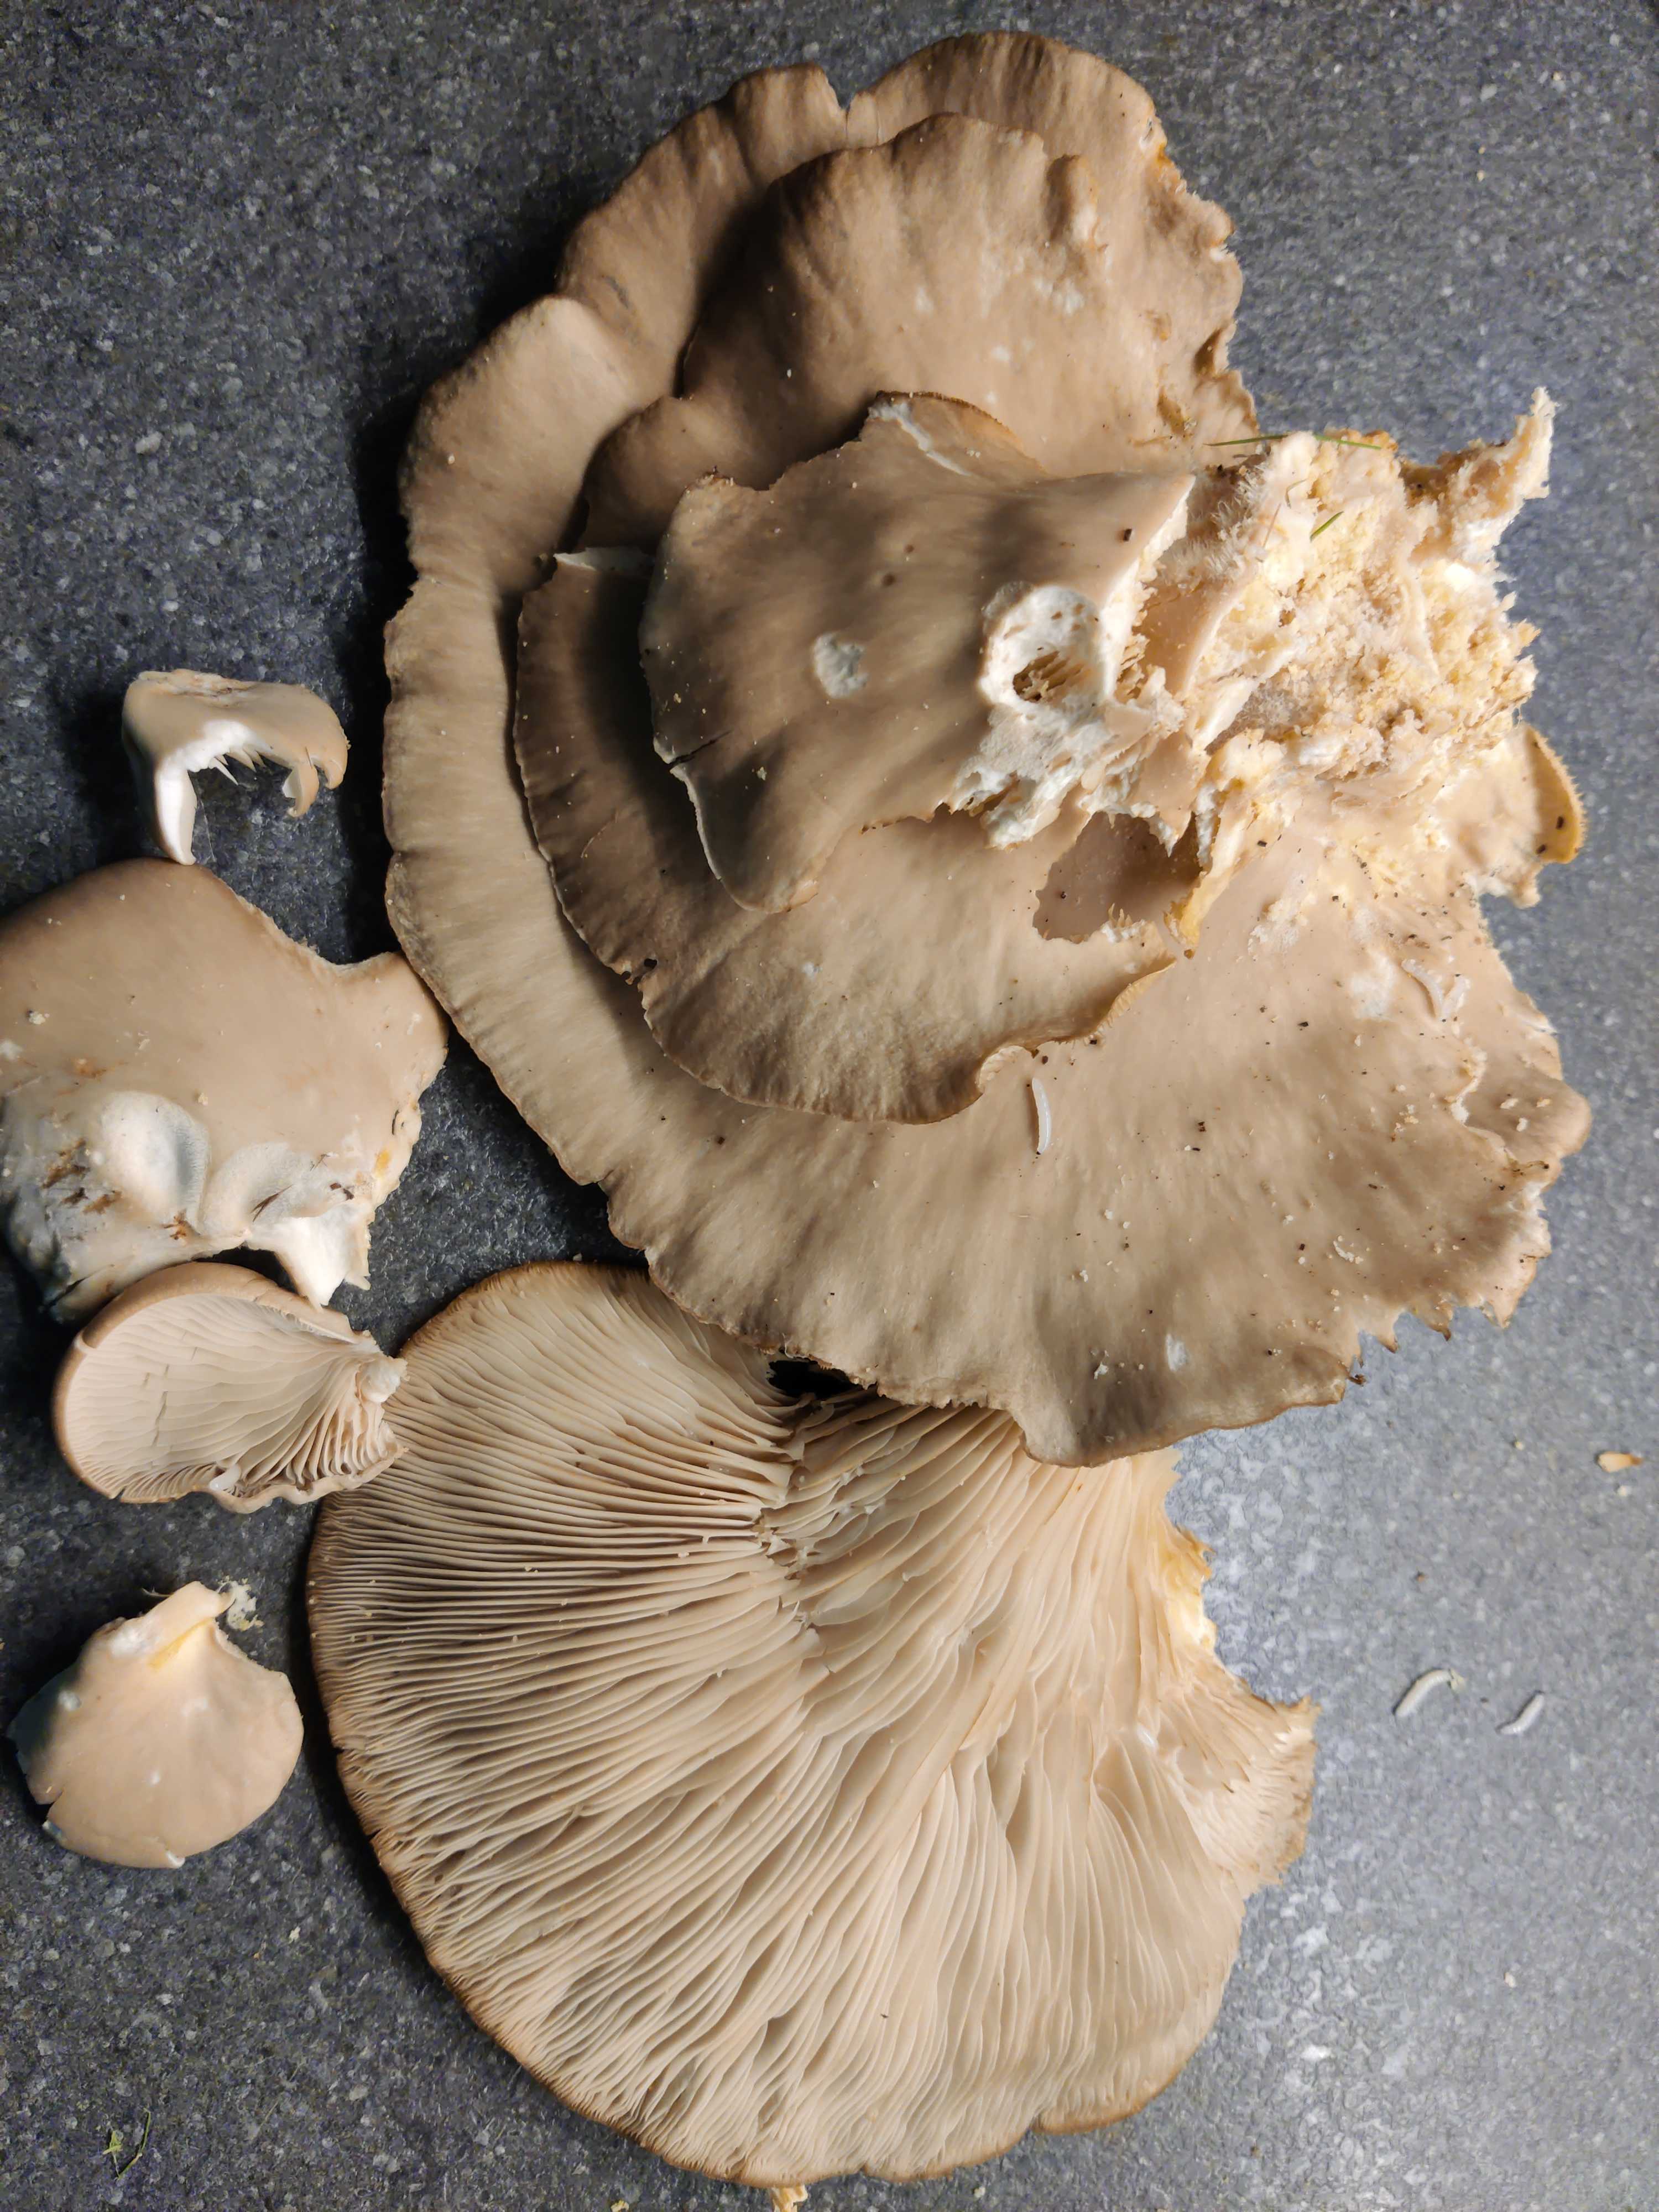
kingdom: Fungi
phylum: Basidiomycota
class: Agaricomycetes
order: Agaricales
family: Pleurotaceae
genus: Pleurotus
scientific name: Pleurotus ostreatus
